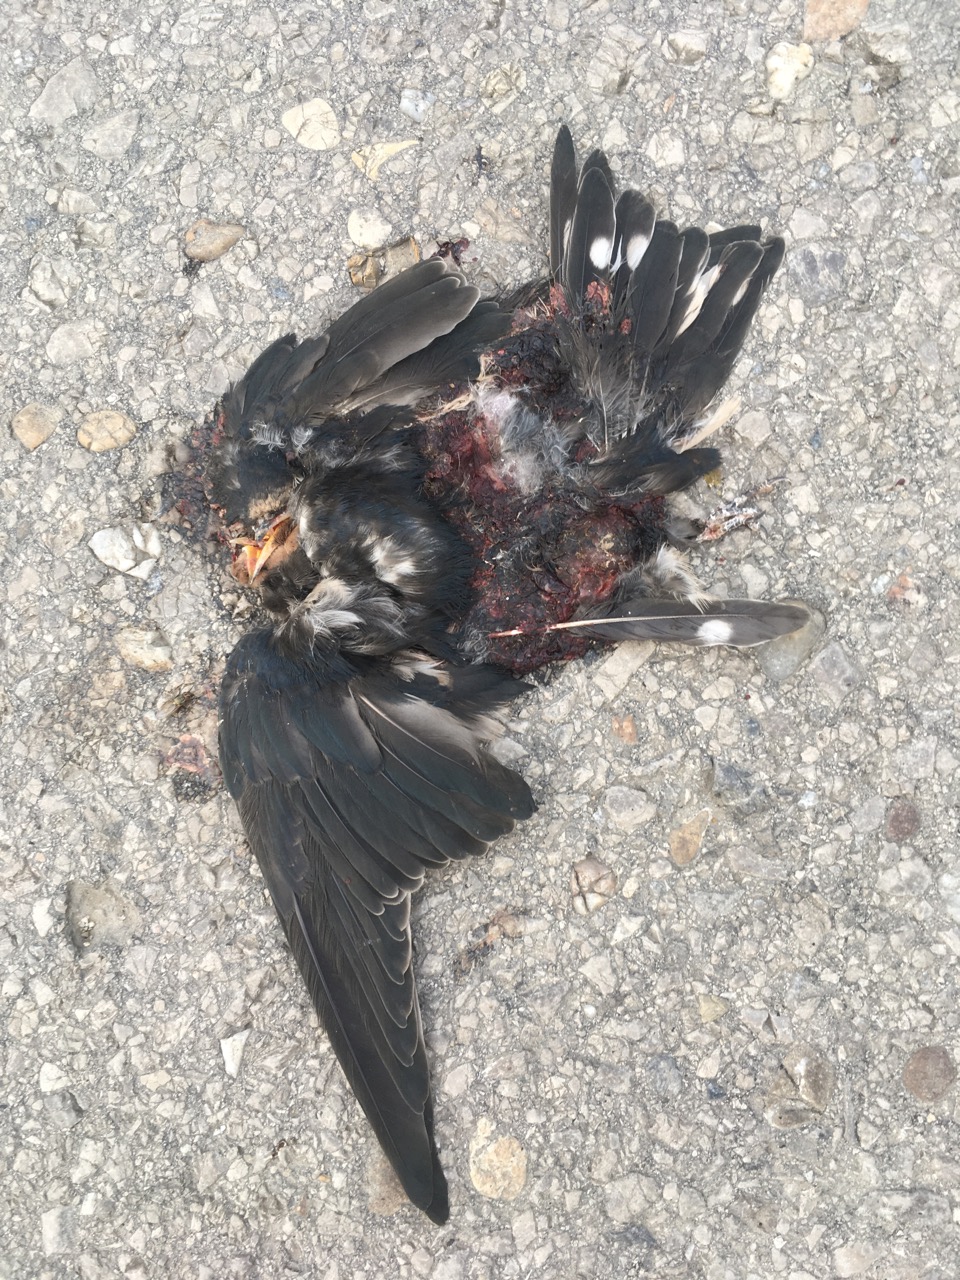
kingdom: Animalia
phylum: Chordata
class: Aves
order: Passeriformes
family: Hirundinidae
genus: Hirundo
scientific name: Hirundo rustica
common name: Barn swallow
